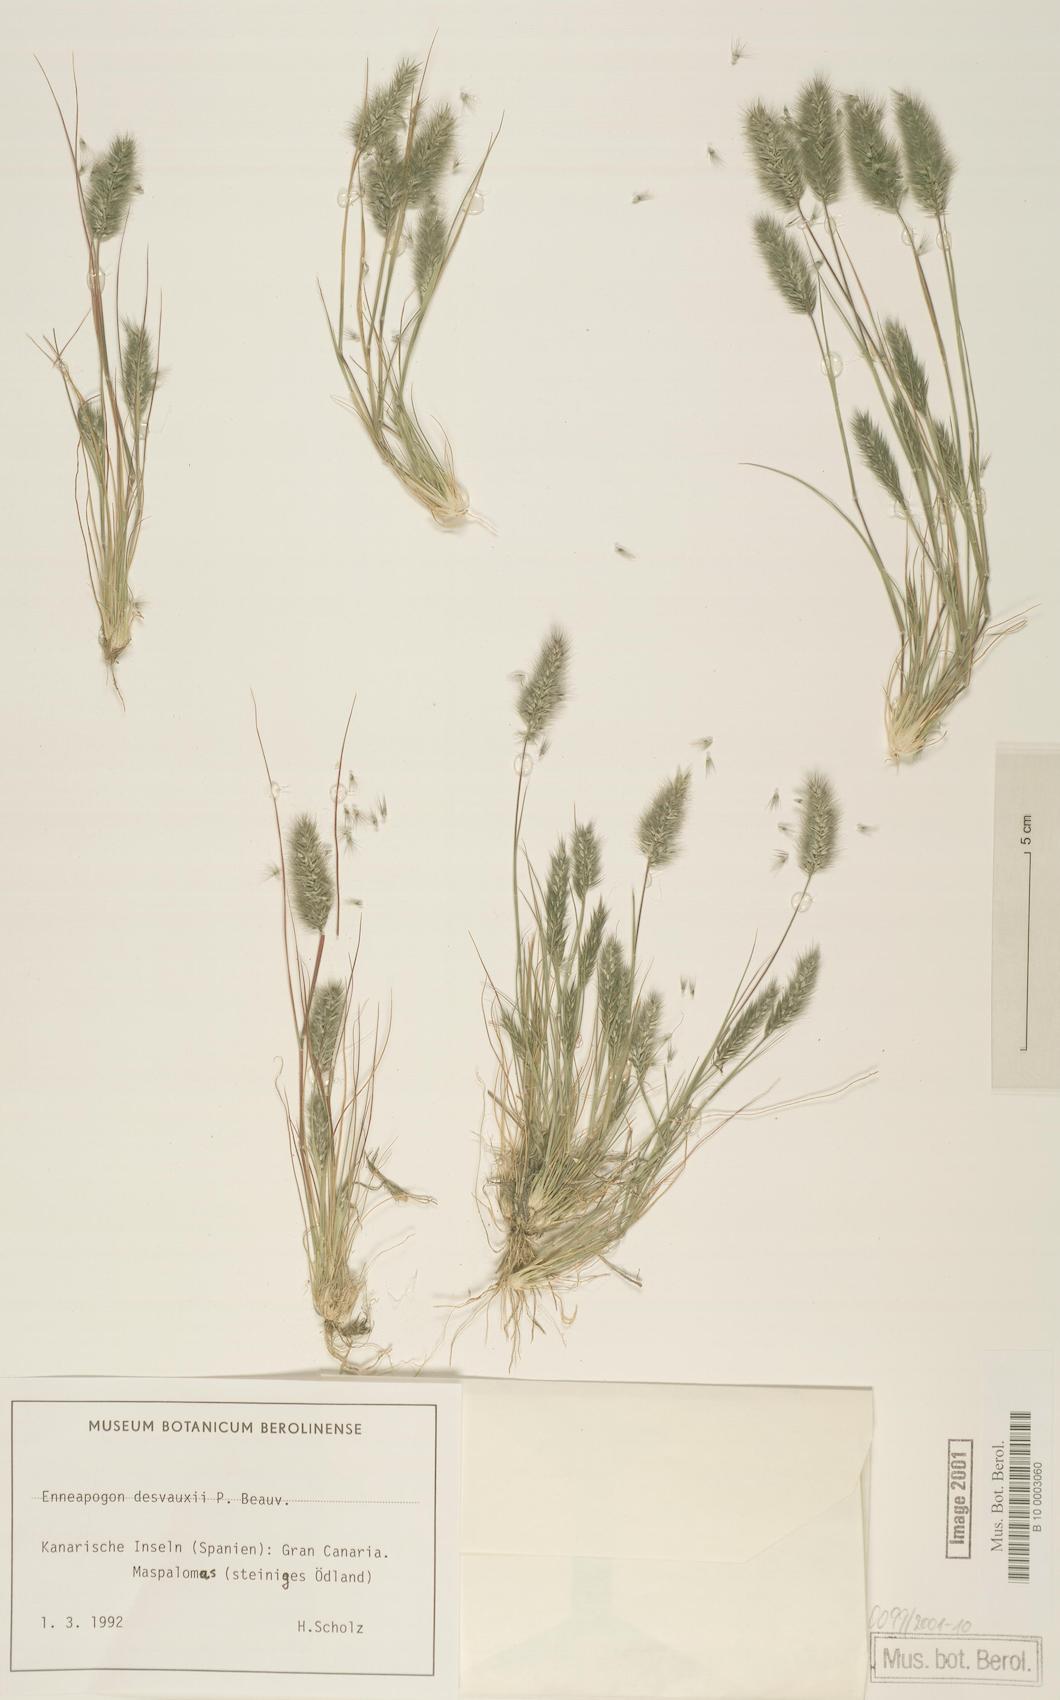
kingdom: Plantae
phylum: Tracheophyta
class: Liliopsida
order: Poales
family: Poaceae
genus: Enneapogon
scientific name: Enneapogon desvauxii
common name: Feather pappus grass
